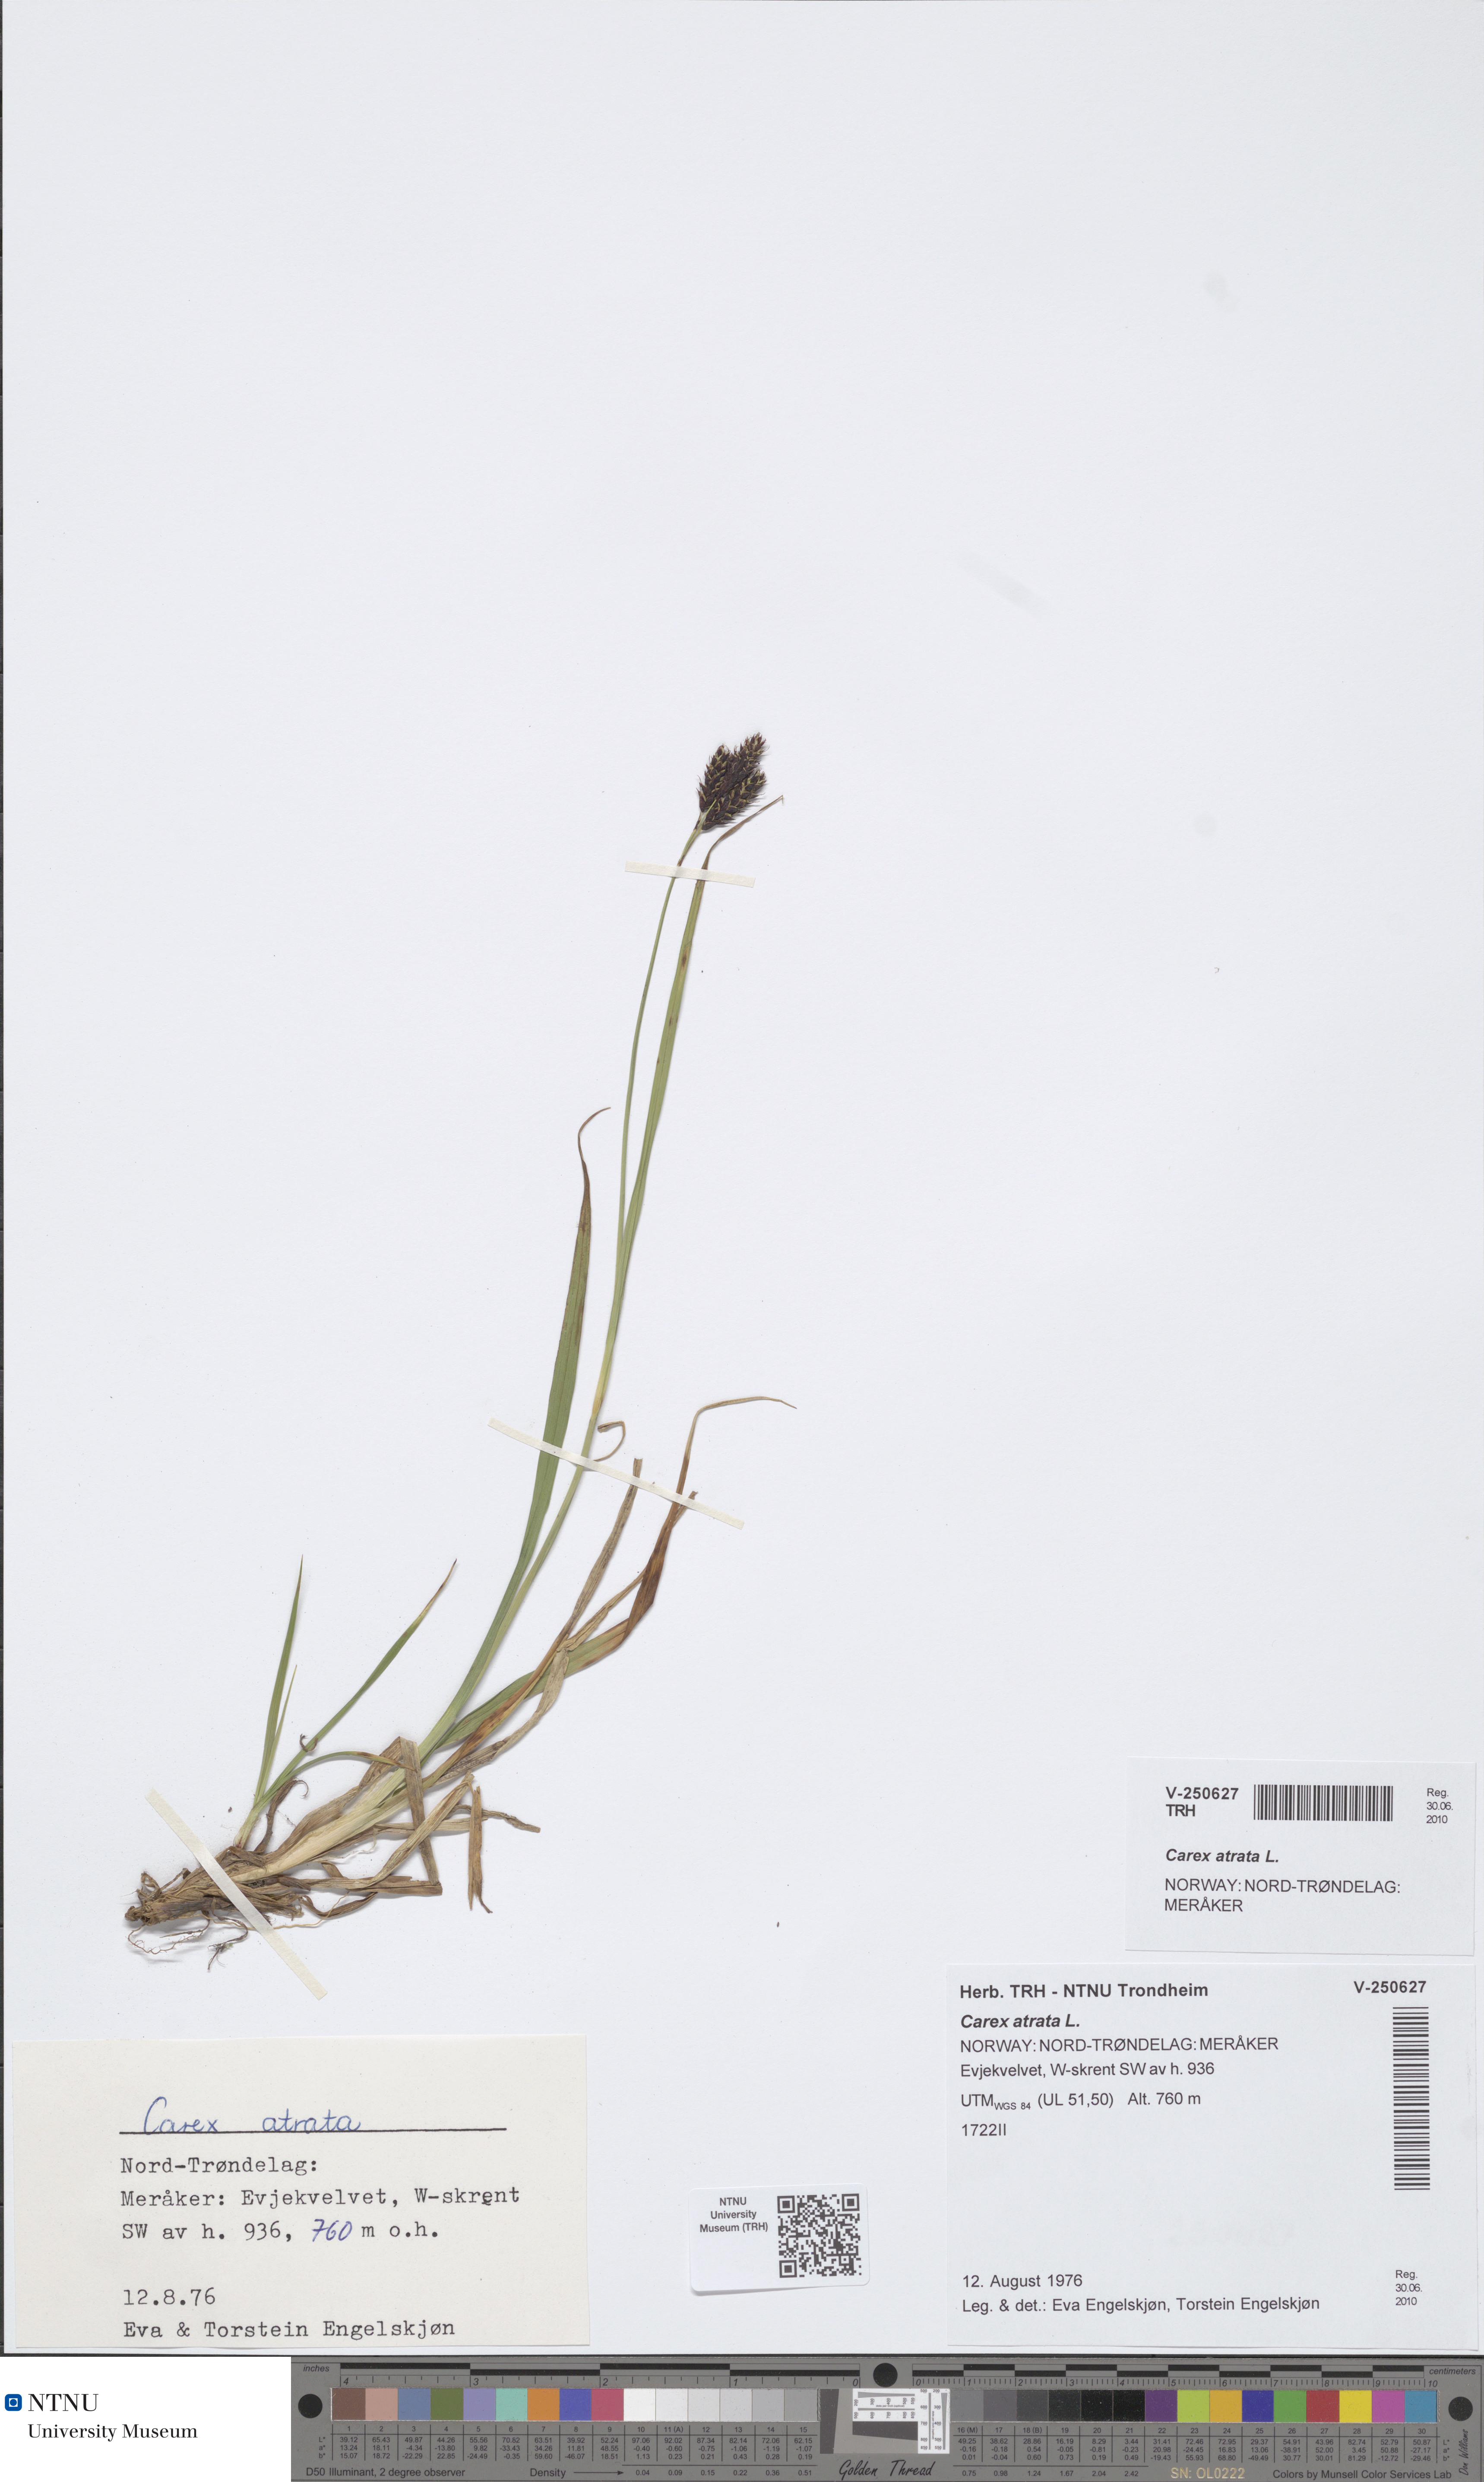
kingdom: Plantae
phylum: Tracheophyta
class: Liliopsida
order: Poales
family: Cyperaceae
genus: Carex
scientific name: Carex atrata
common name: Black alpine sedge
